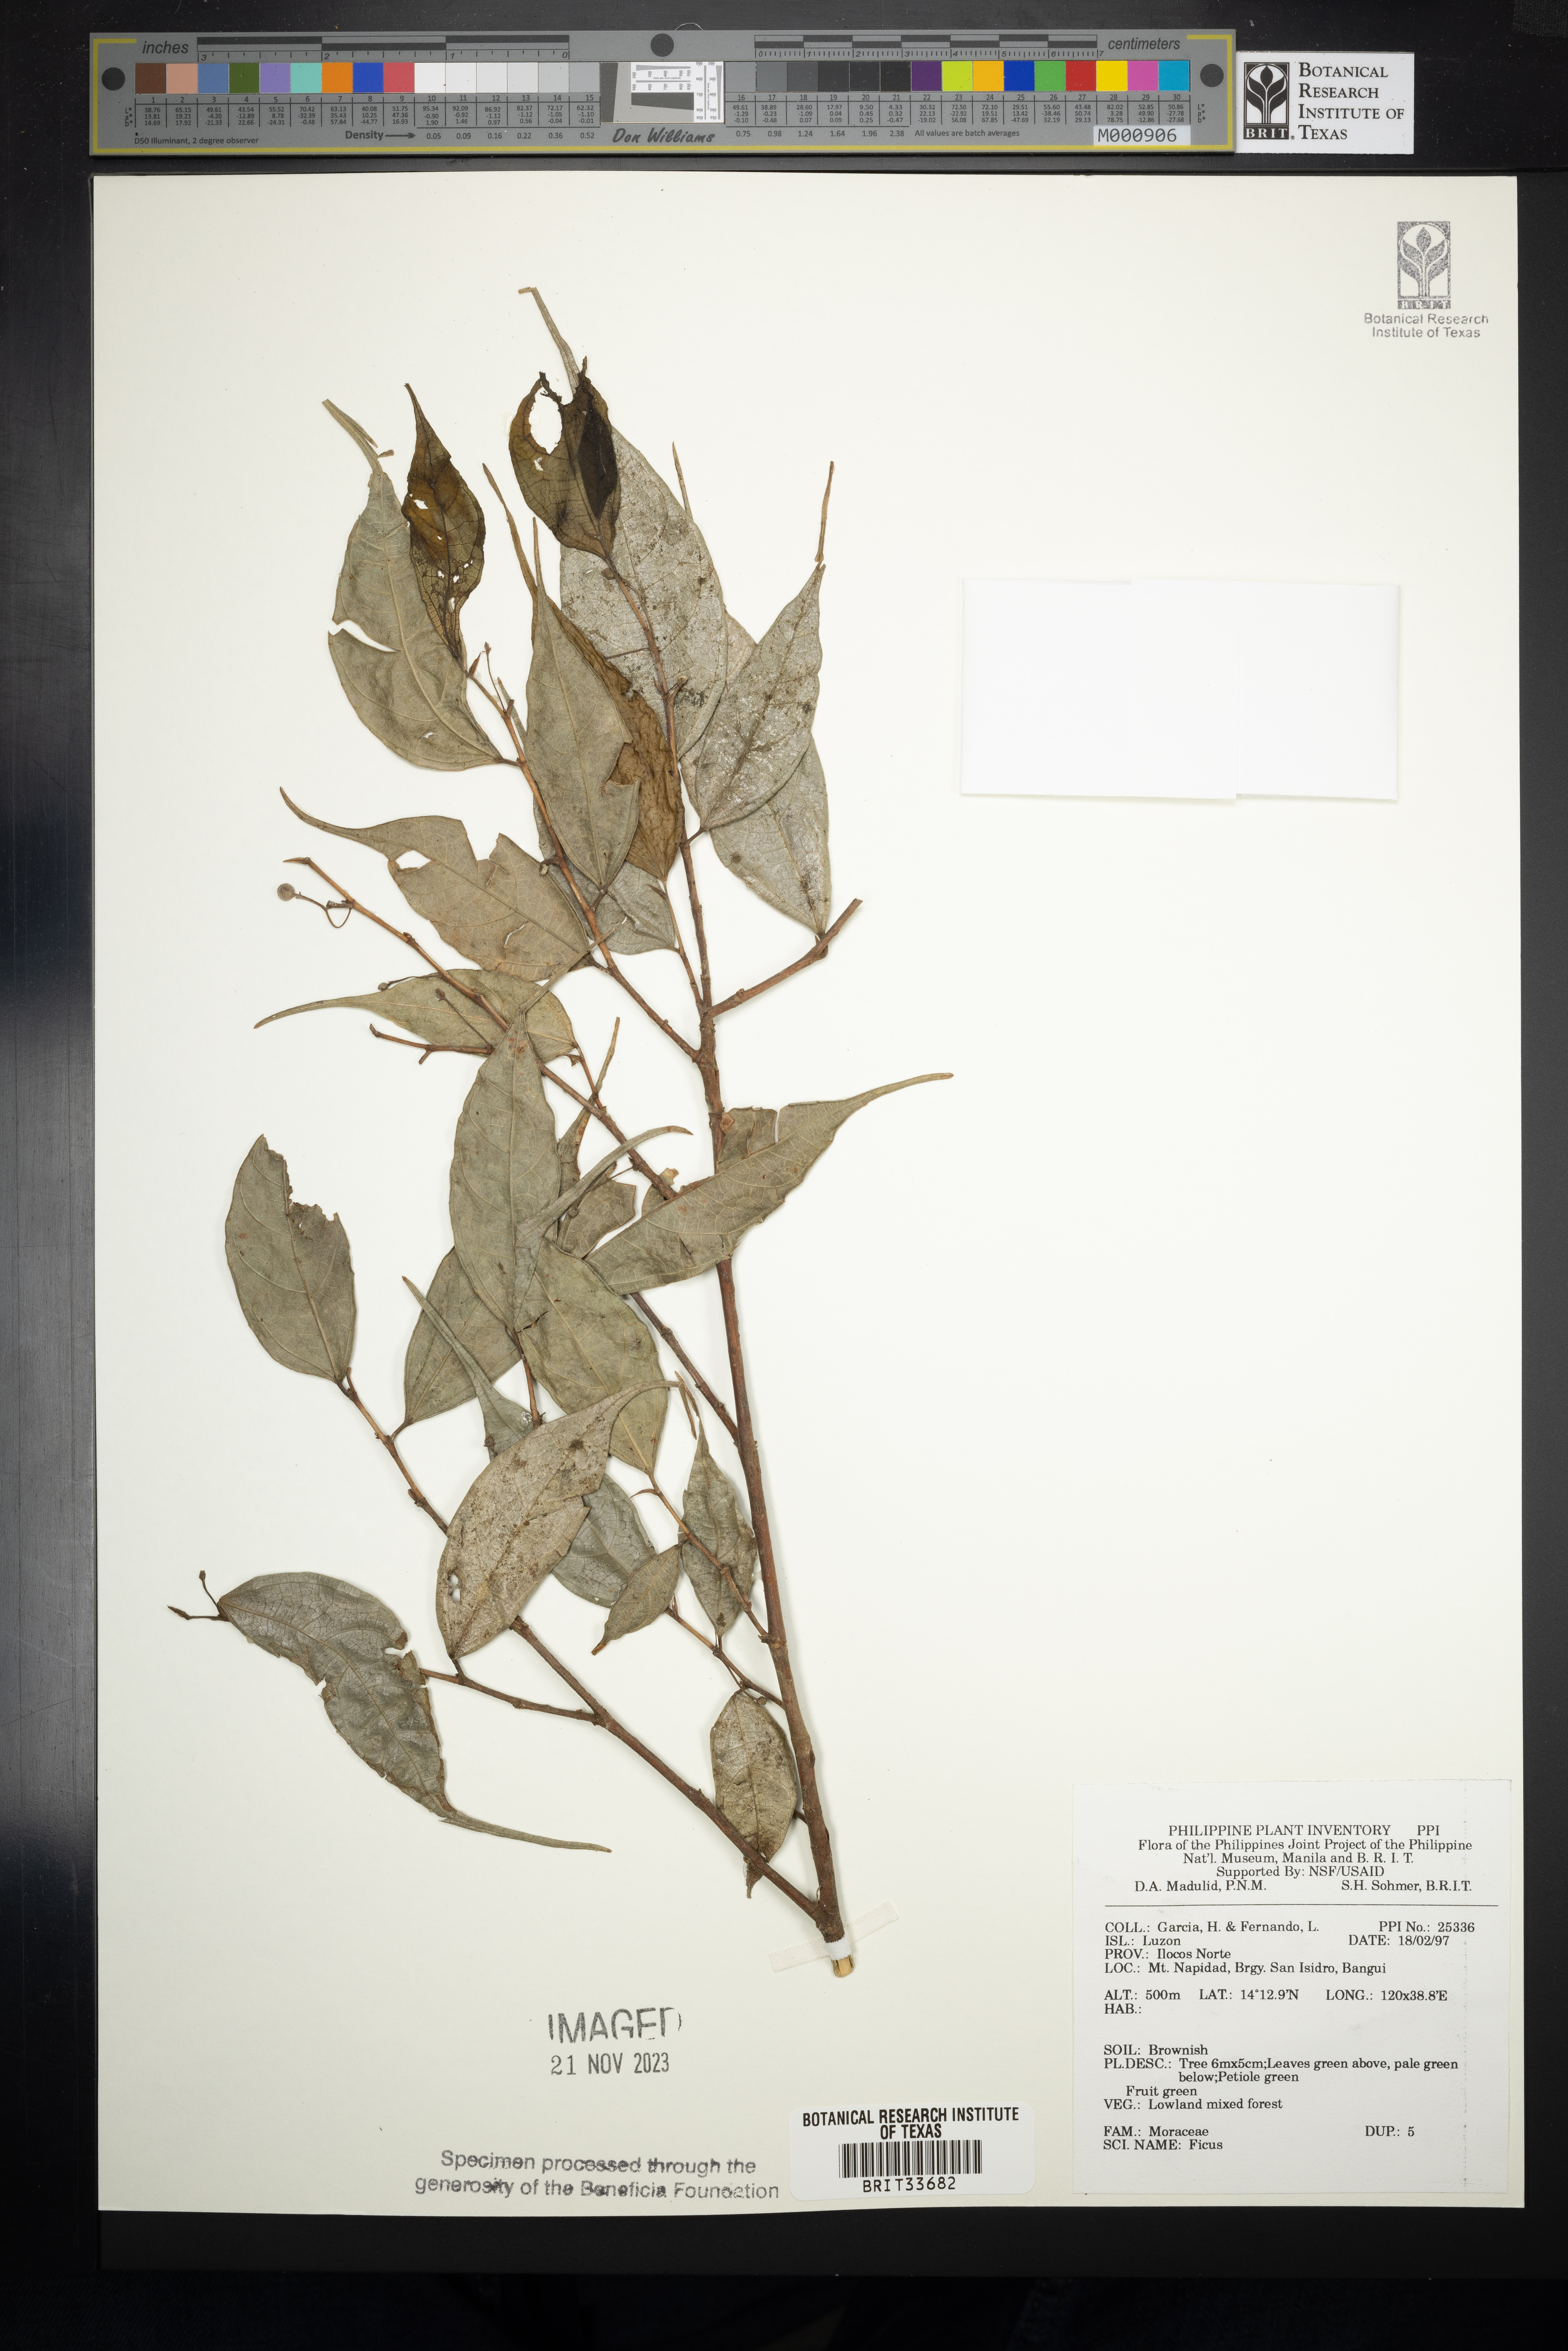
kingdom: Plantae
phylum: Tracheophyta
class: Magnoliopsida
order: Rosales
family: Moraceae
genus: Ficus
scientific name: Ficus
